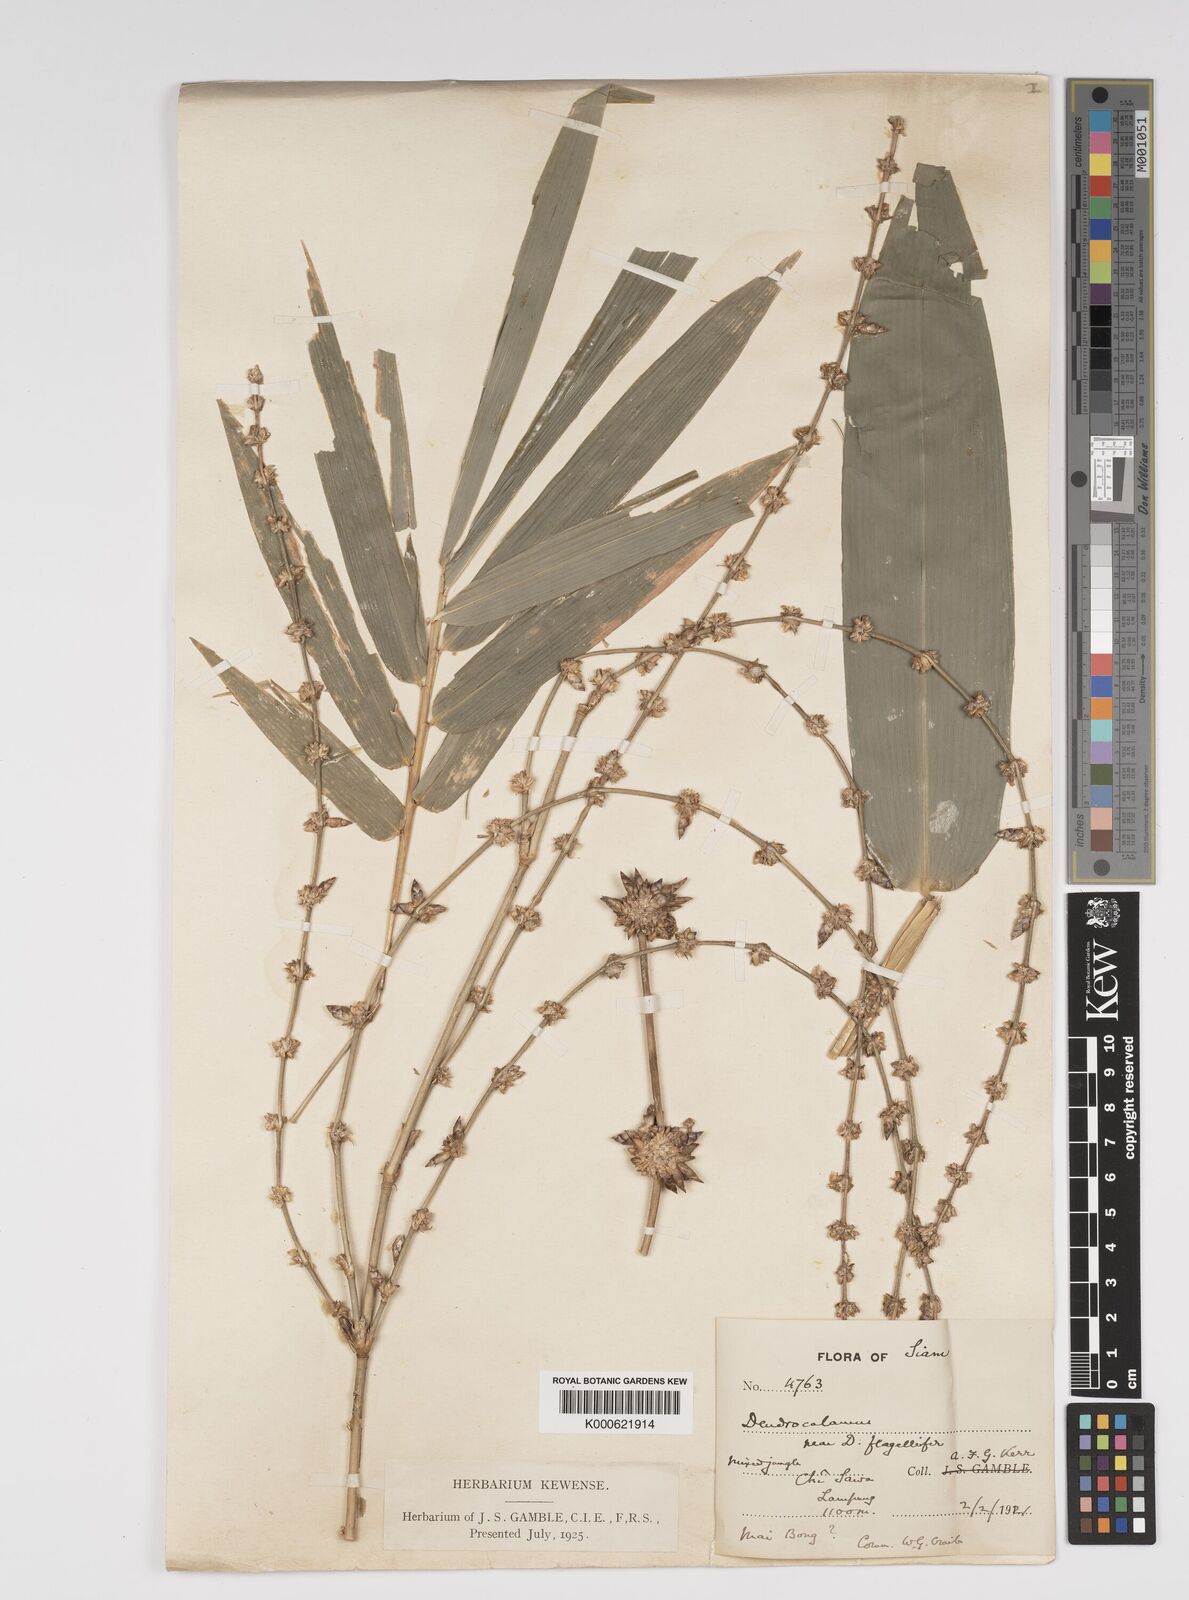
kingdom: Plantae
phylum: Tracheophyta
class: Liliopsida
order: Poales
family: Poaceae
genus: Bambusa
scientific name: Bambusa
